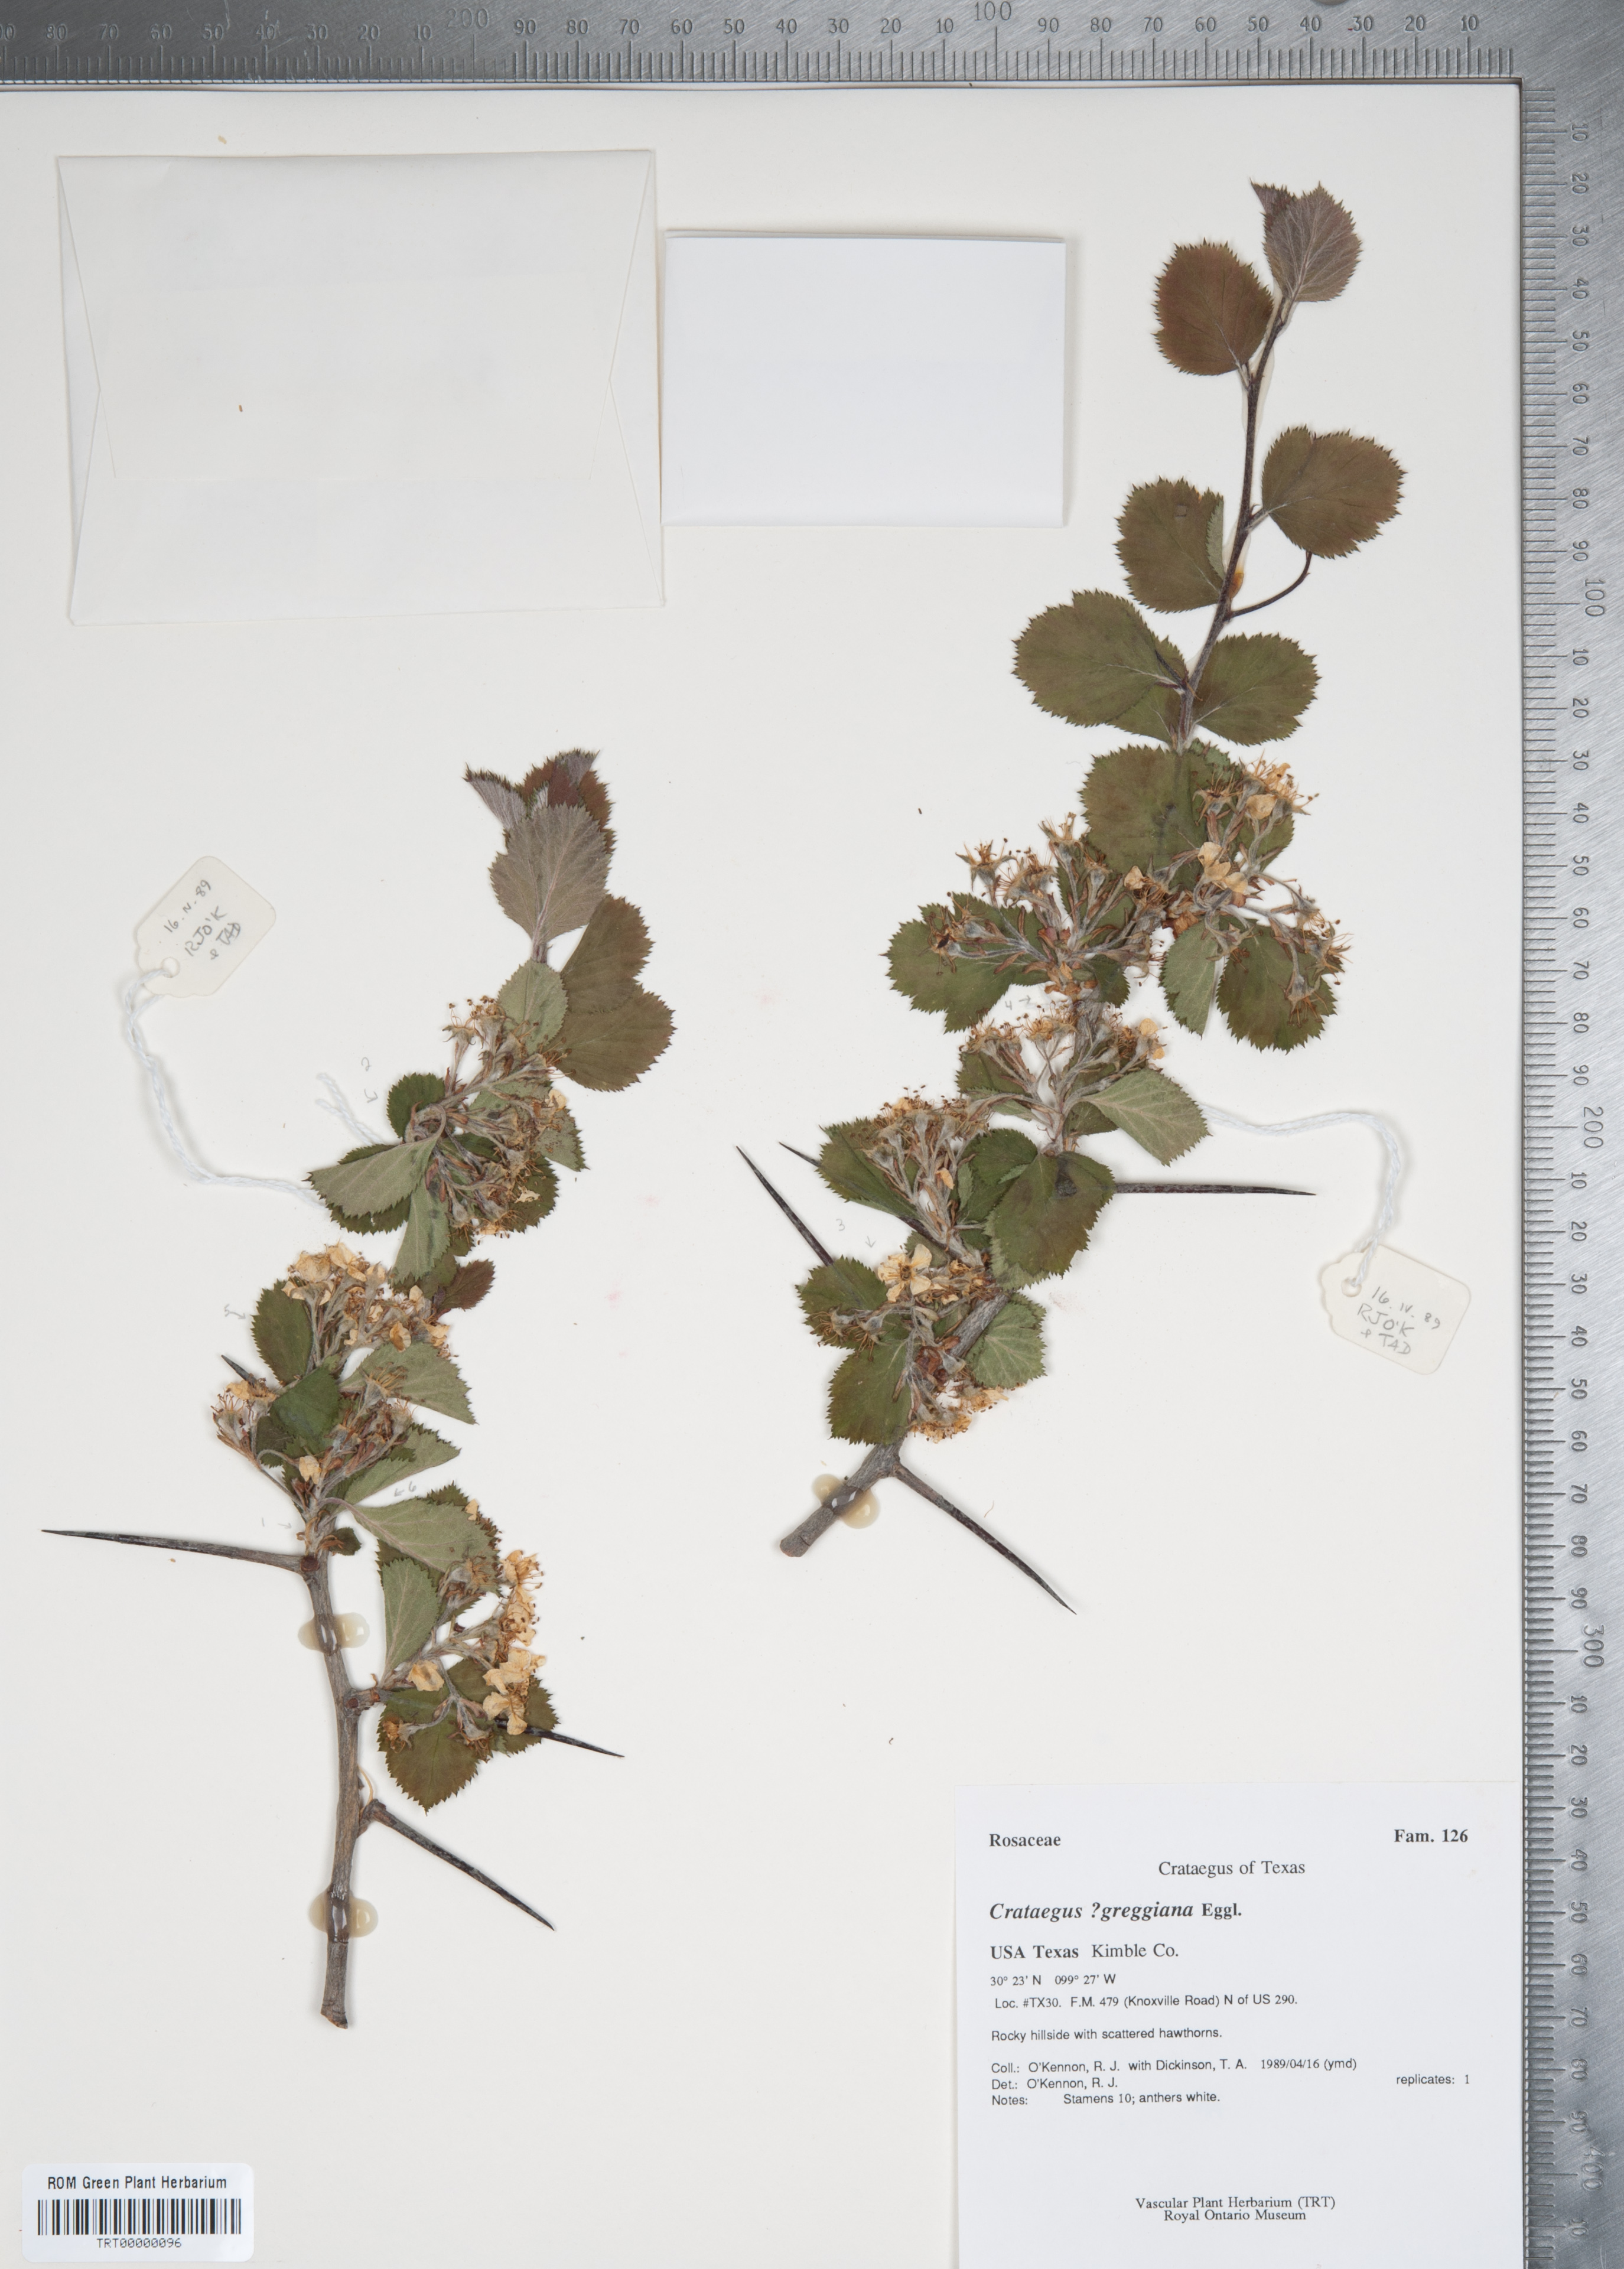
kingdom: Plantae
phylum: Tracheophyta
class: Magnoliopsida
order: Rosales
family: Rosaceae
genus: Crataegus
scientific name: Crataegus greggiana
